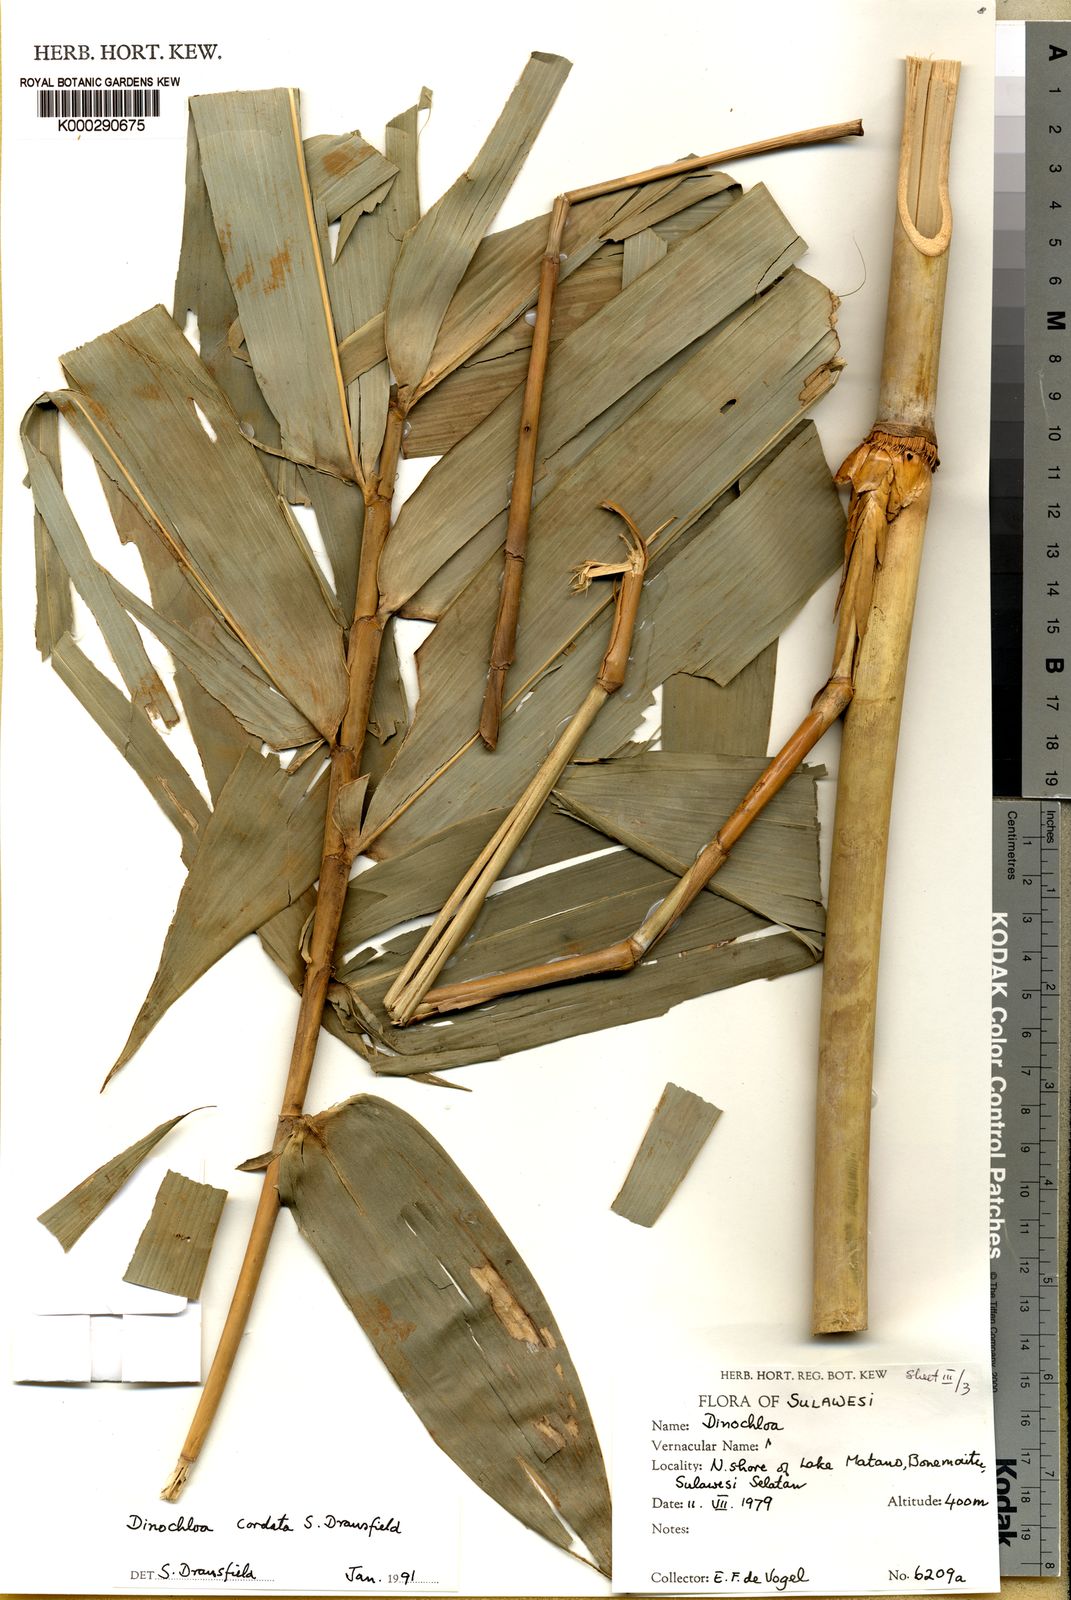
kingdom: Plantae
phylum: Tracheophyta
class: Liliopsida
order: Poales
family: Poaceae
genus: Dinochloa
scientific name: Dinochloa cordata
